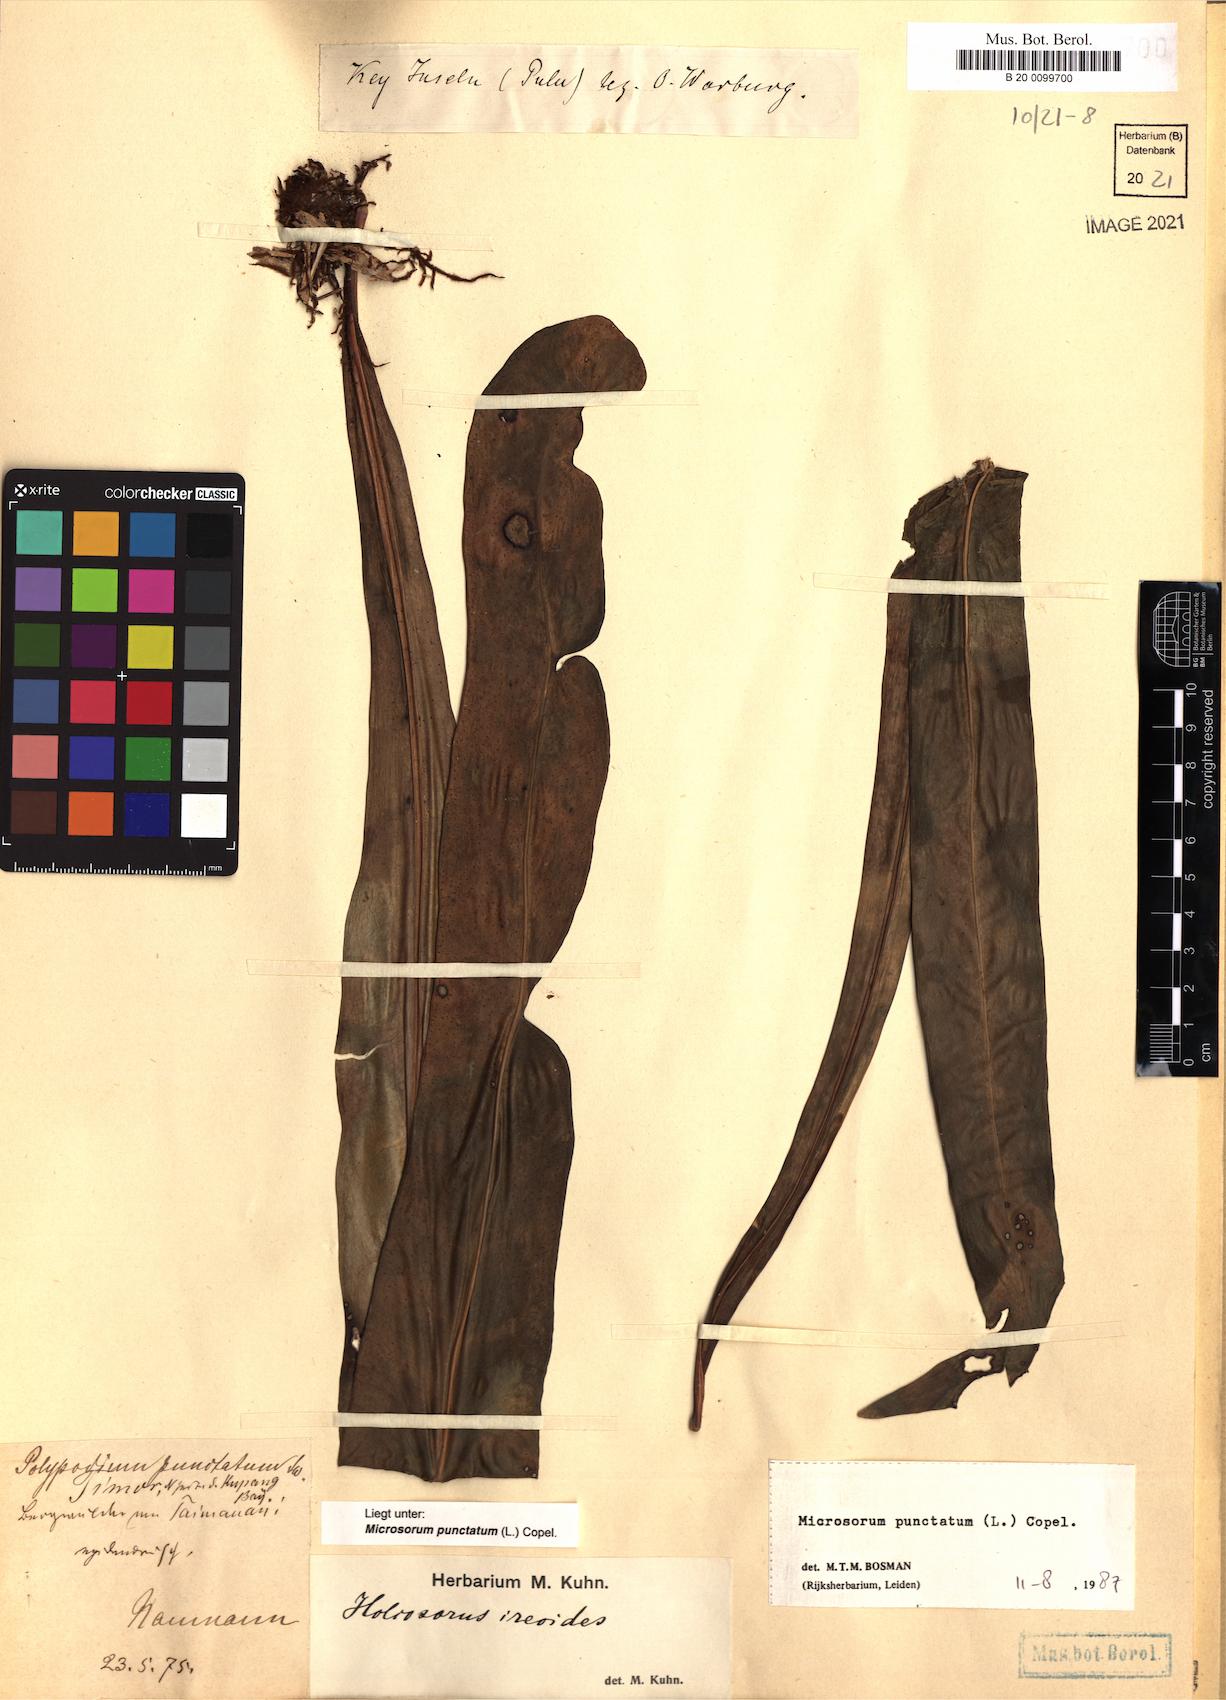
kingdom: Plantae
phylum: Tracheophyta
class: Polypodiopsida
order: Polypodiales
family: Polypodiaceae
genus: Microsorum
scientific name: Microsorum punctatum
